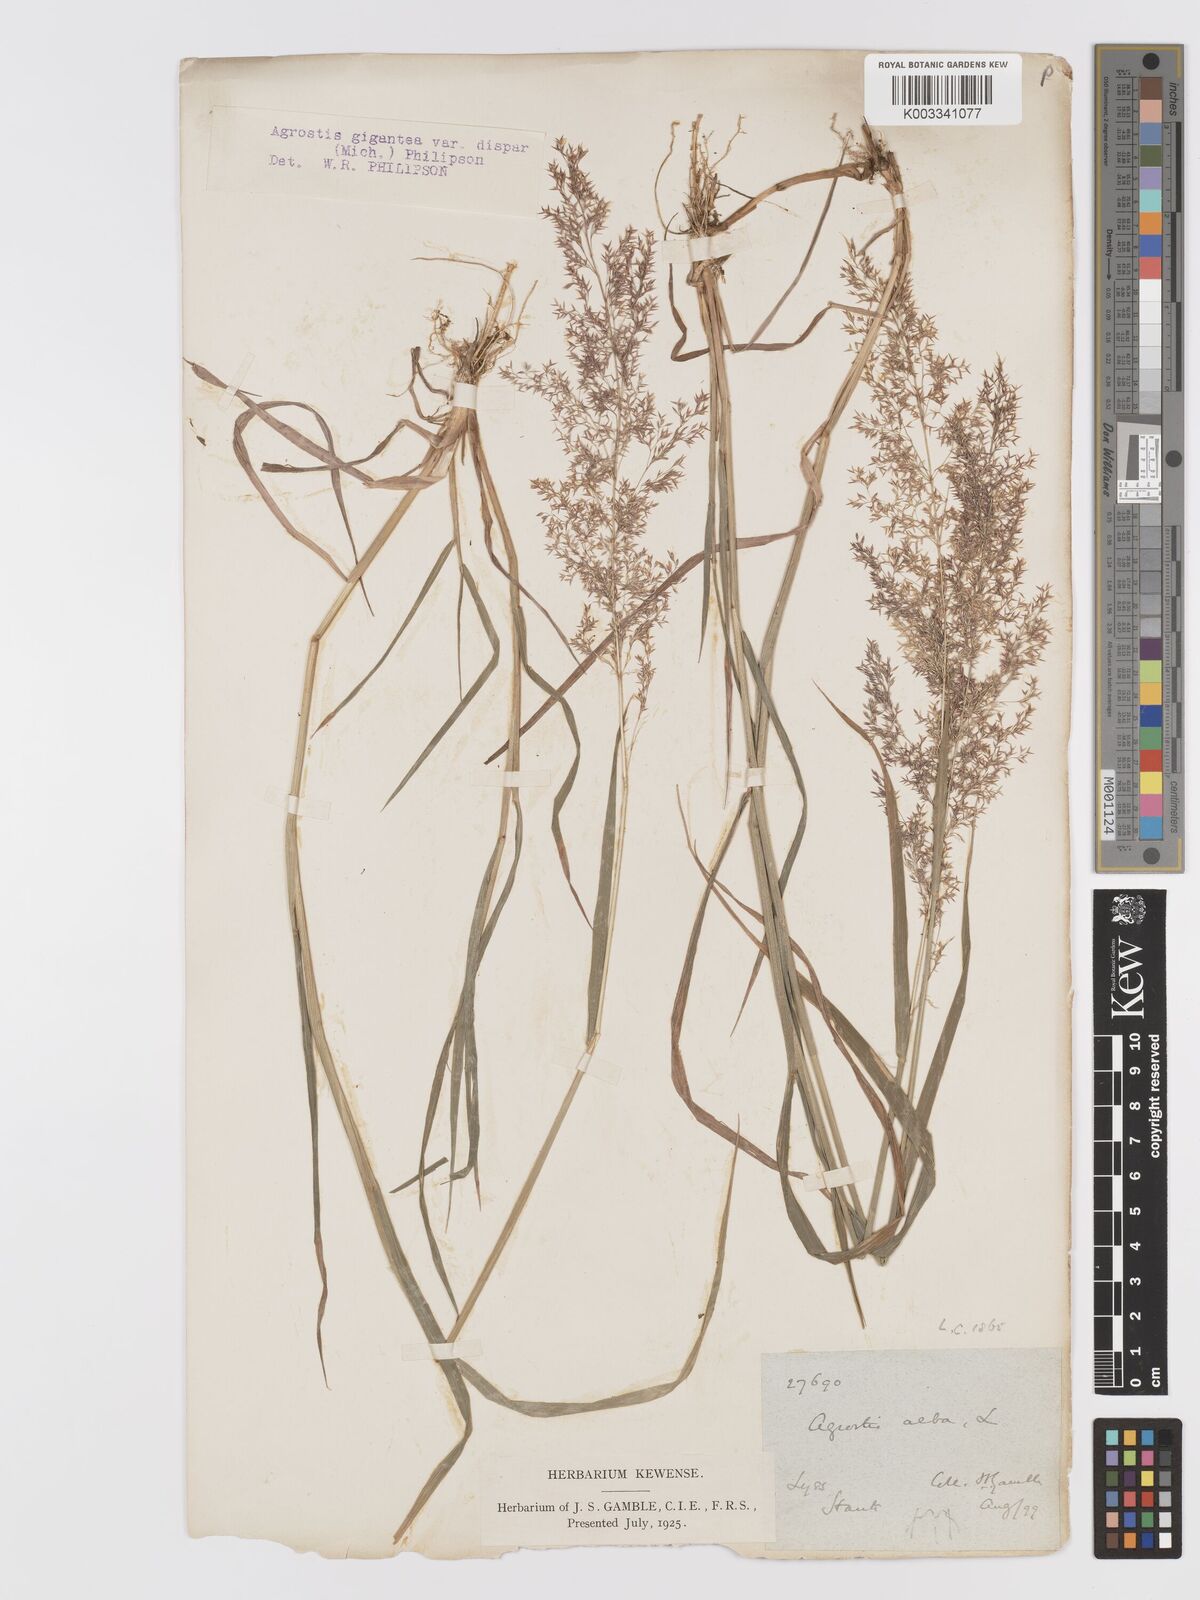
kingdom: Plantae
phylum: Tracheophyta
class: Liliopsida
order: Poales
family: Poaceae
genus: Agrostis
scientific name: Agrostis gigantea
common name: Black bent
